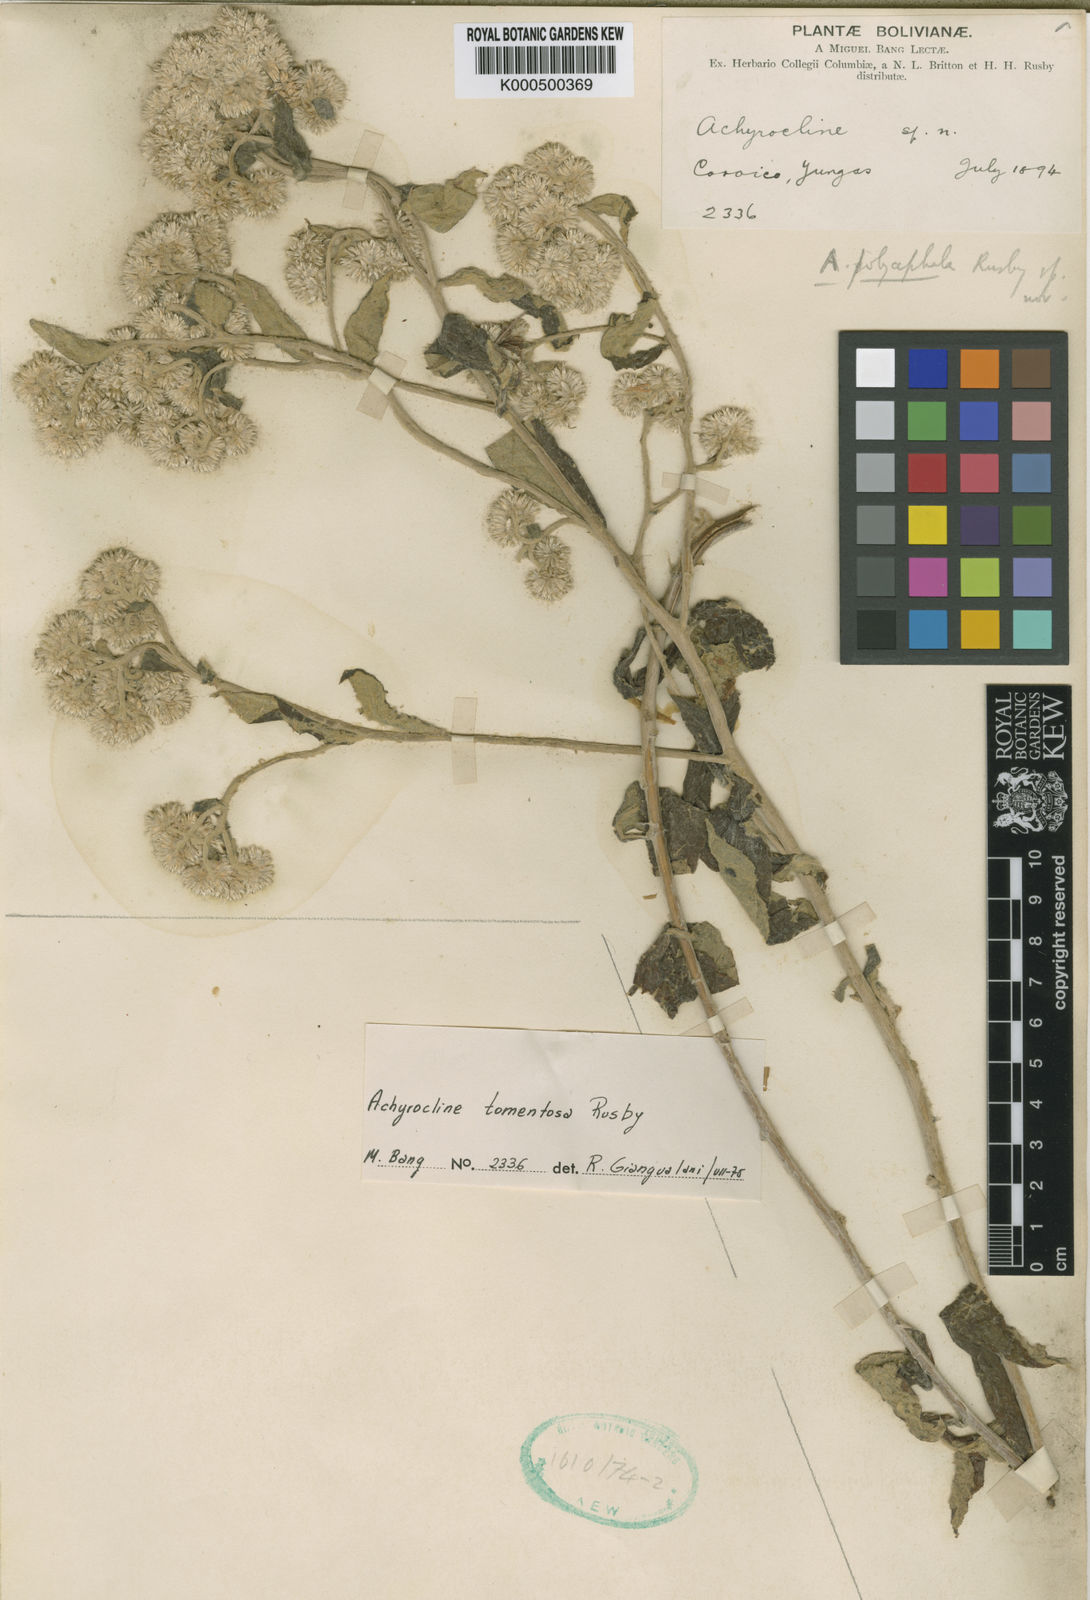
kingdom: Plantae
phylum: Tracheophyta
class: Magnoliopsida
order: Asterales
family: Asteraceae
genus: Achyrocline
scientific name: Achyrocline tomentosa
